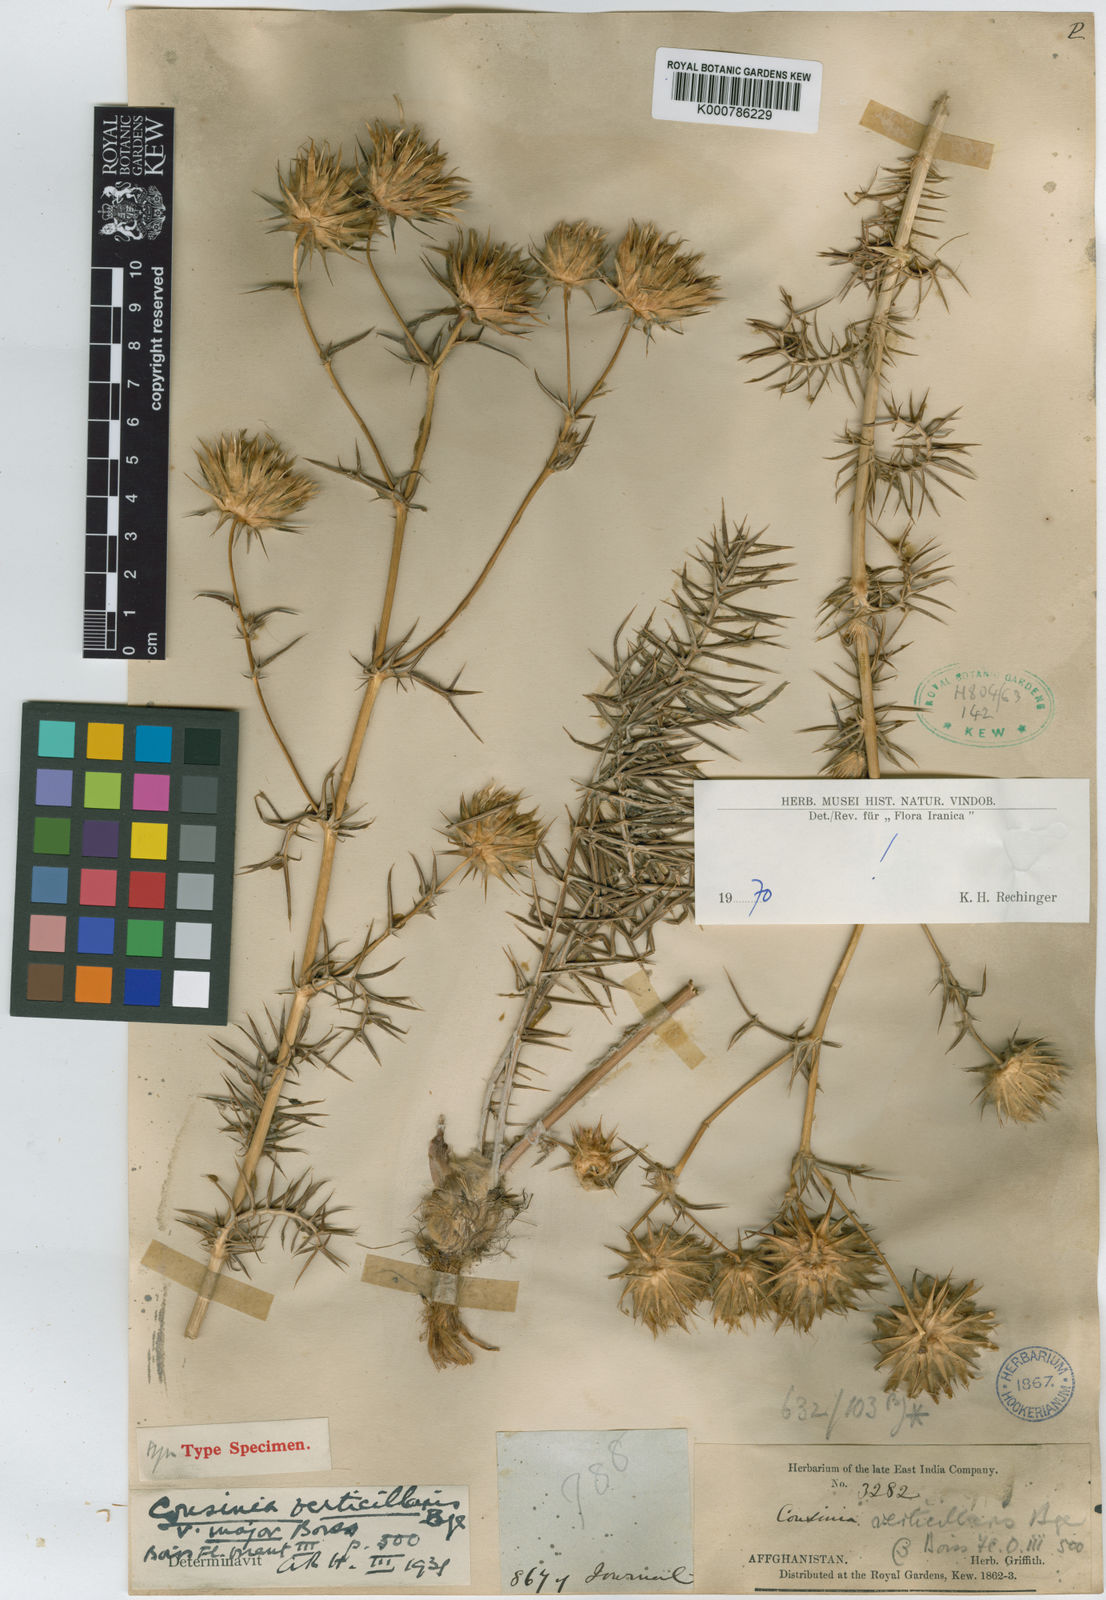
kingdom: Plantae
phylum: Tracheophyta
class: Magnoliopsida
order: Asterales
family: Asteraceae
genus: Cousinia
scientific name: Cousinia verticillaris
